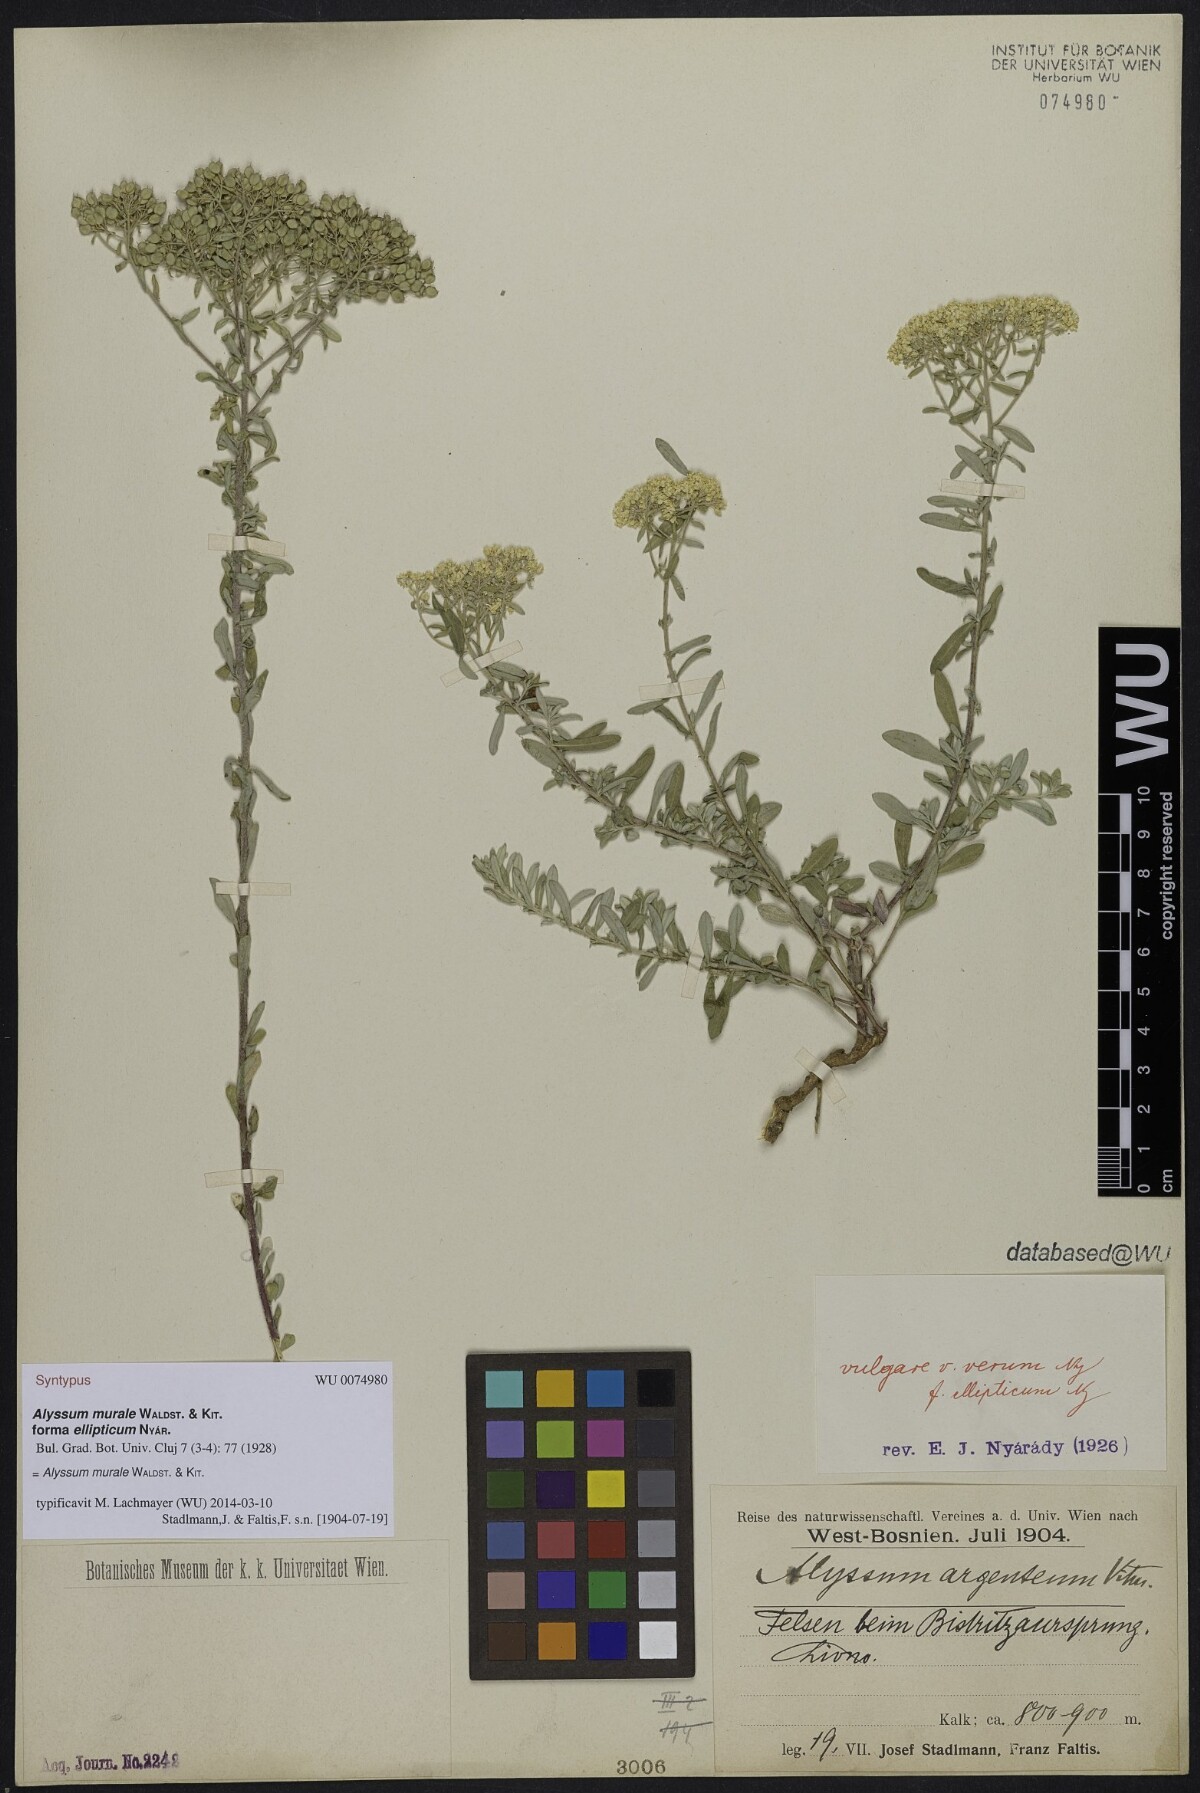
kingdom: Plantae
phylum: Tracheophyta
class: Magnoliopsida
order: Brassicales
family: Brassicaceae
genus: Odontarrhena
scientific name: Odontarrhena muralis
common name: Rock alyssum
